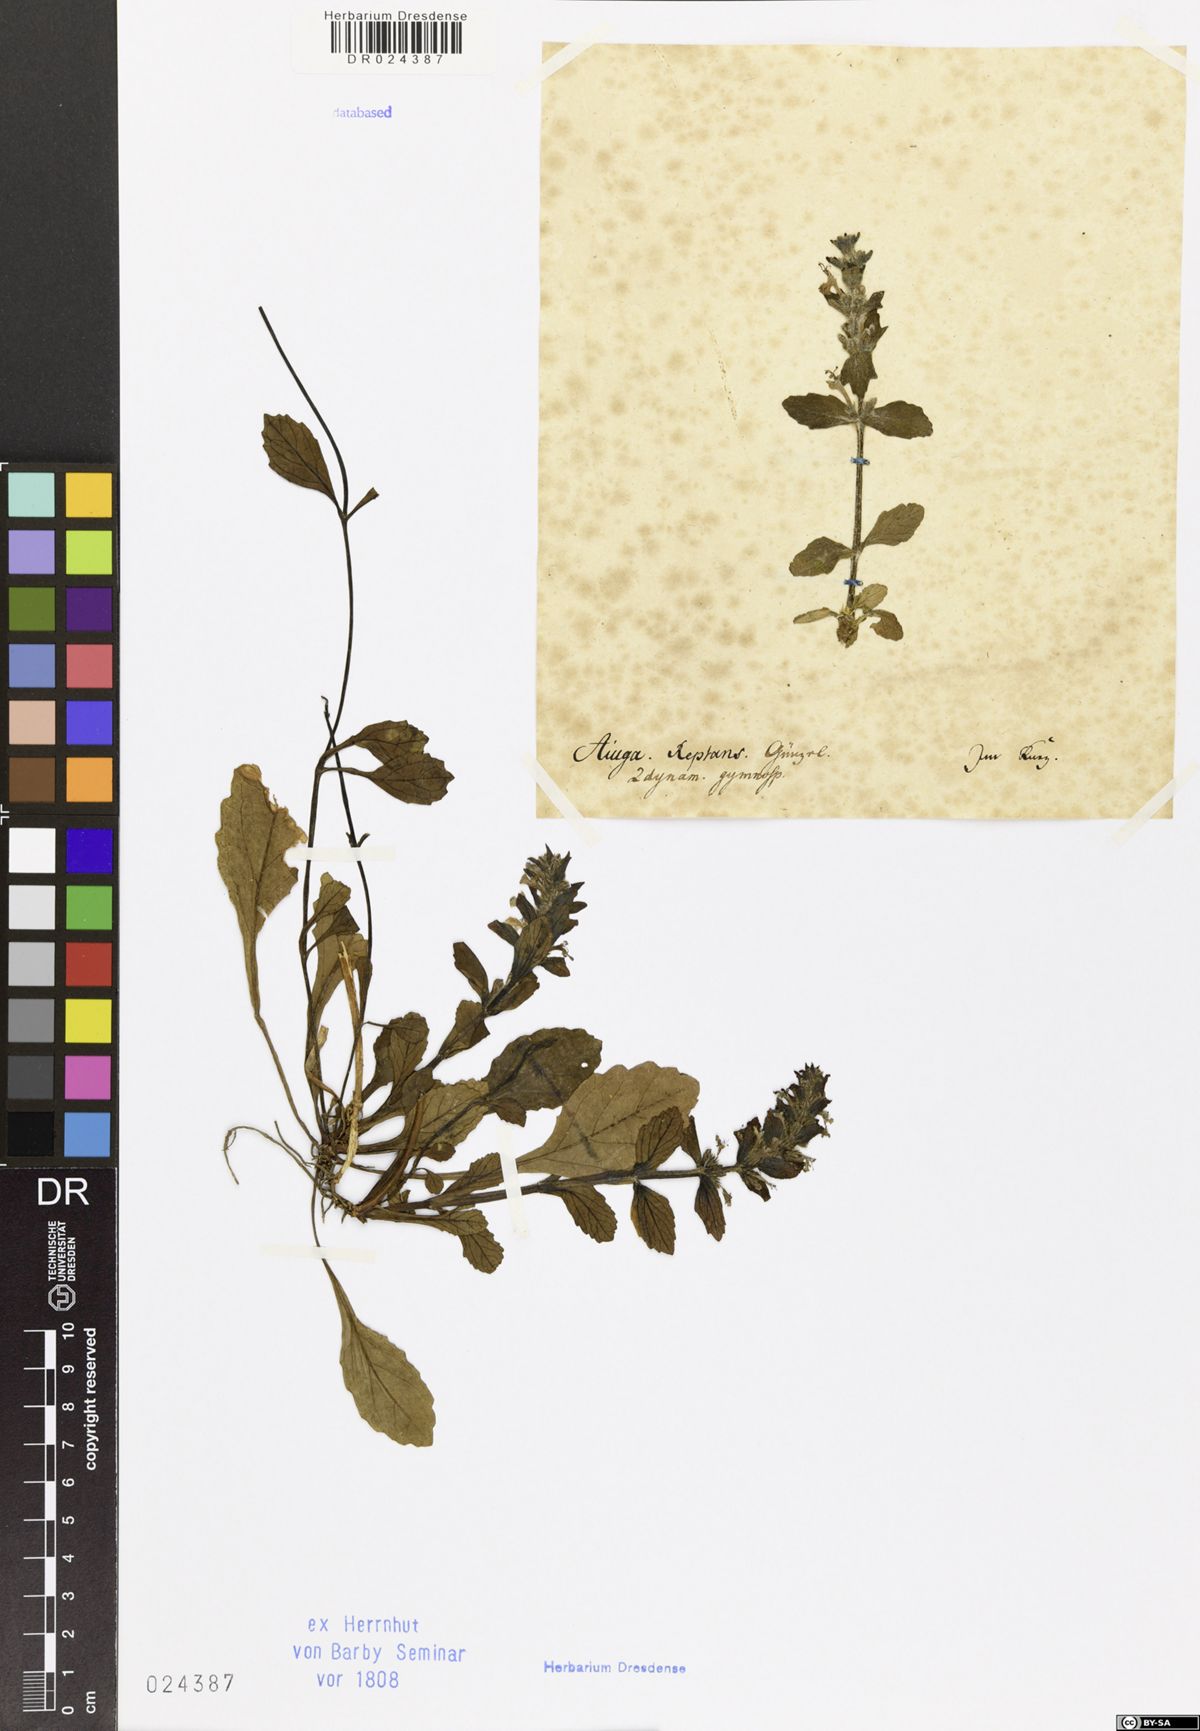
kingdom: Plantae
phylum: Tracheophyta
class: Magnoliopsida
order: Lamiales
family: Lamiaceae
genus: Ajuga
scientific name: Ajuga reptans
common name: Bugle
